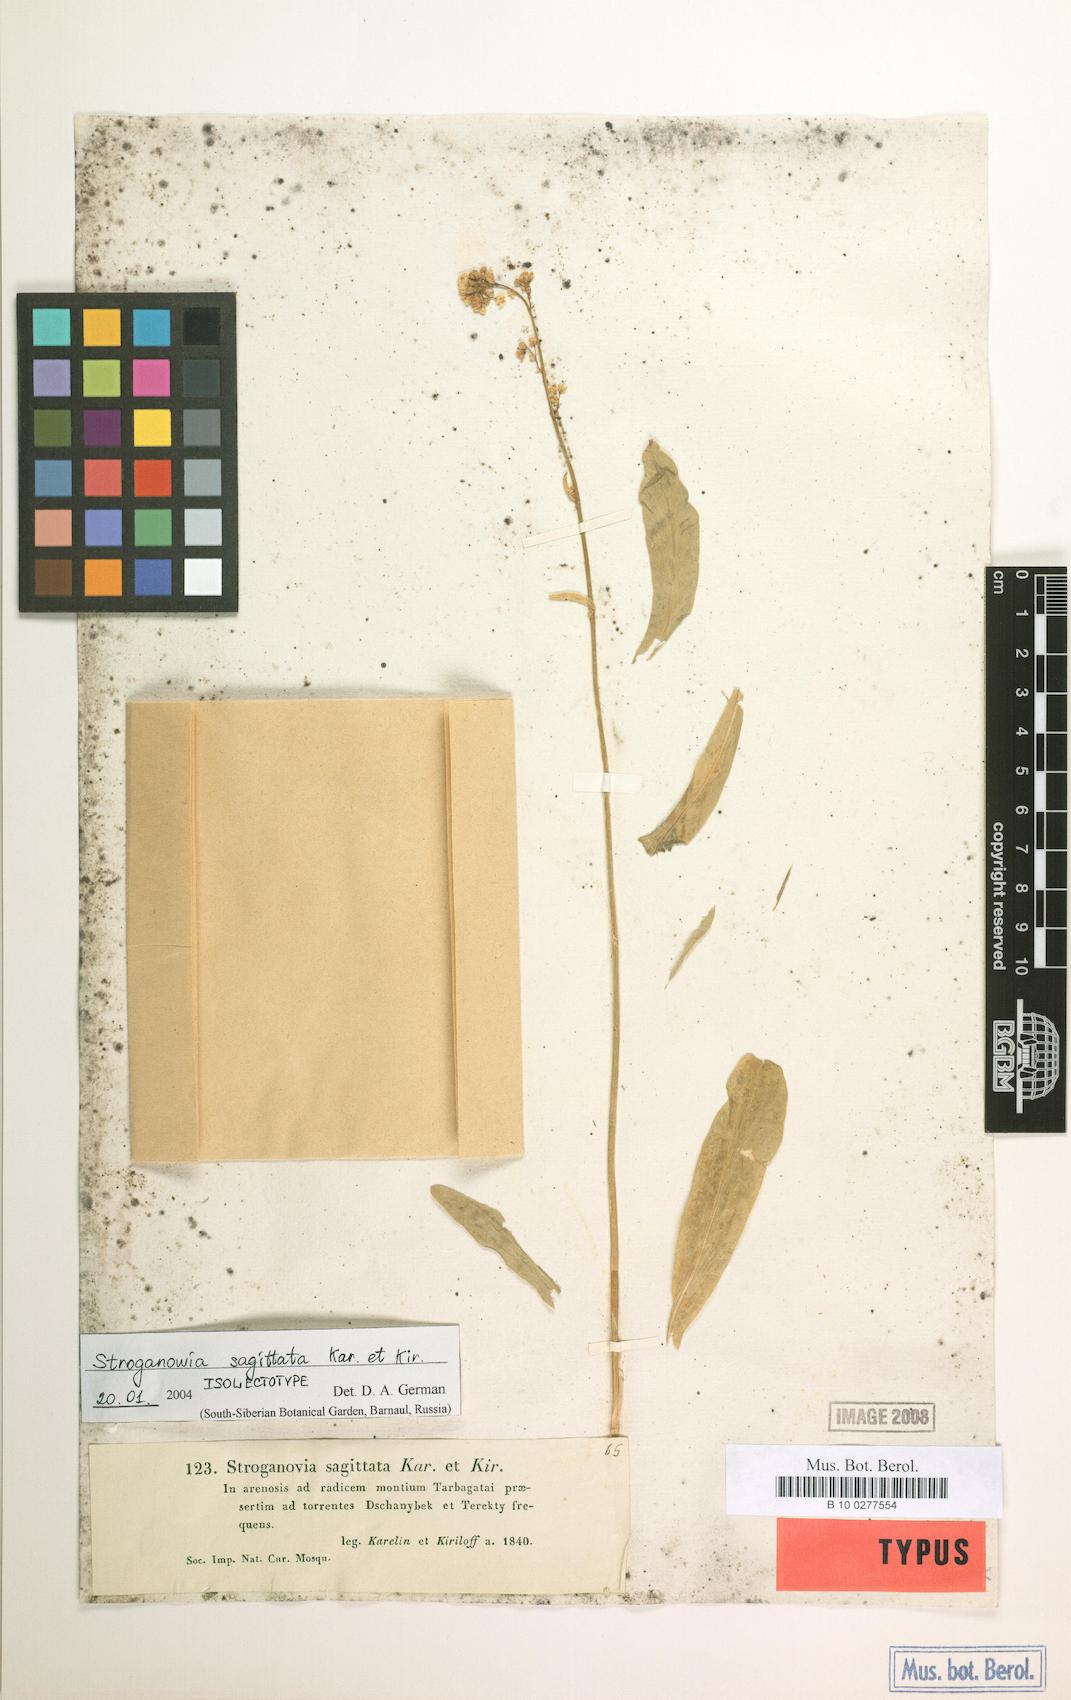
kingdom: Plantae
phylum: Tracheophyta
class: Magnoliopsida
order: Brassicales
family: Brassicaceae
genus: Lepidium
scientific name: Lepidium sagittatum
